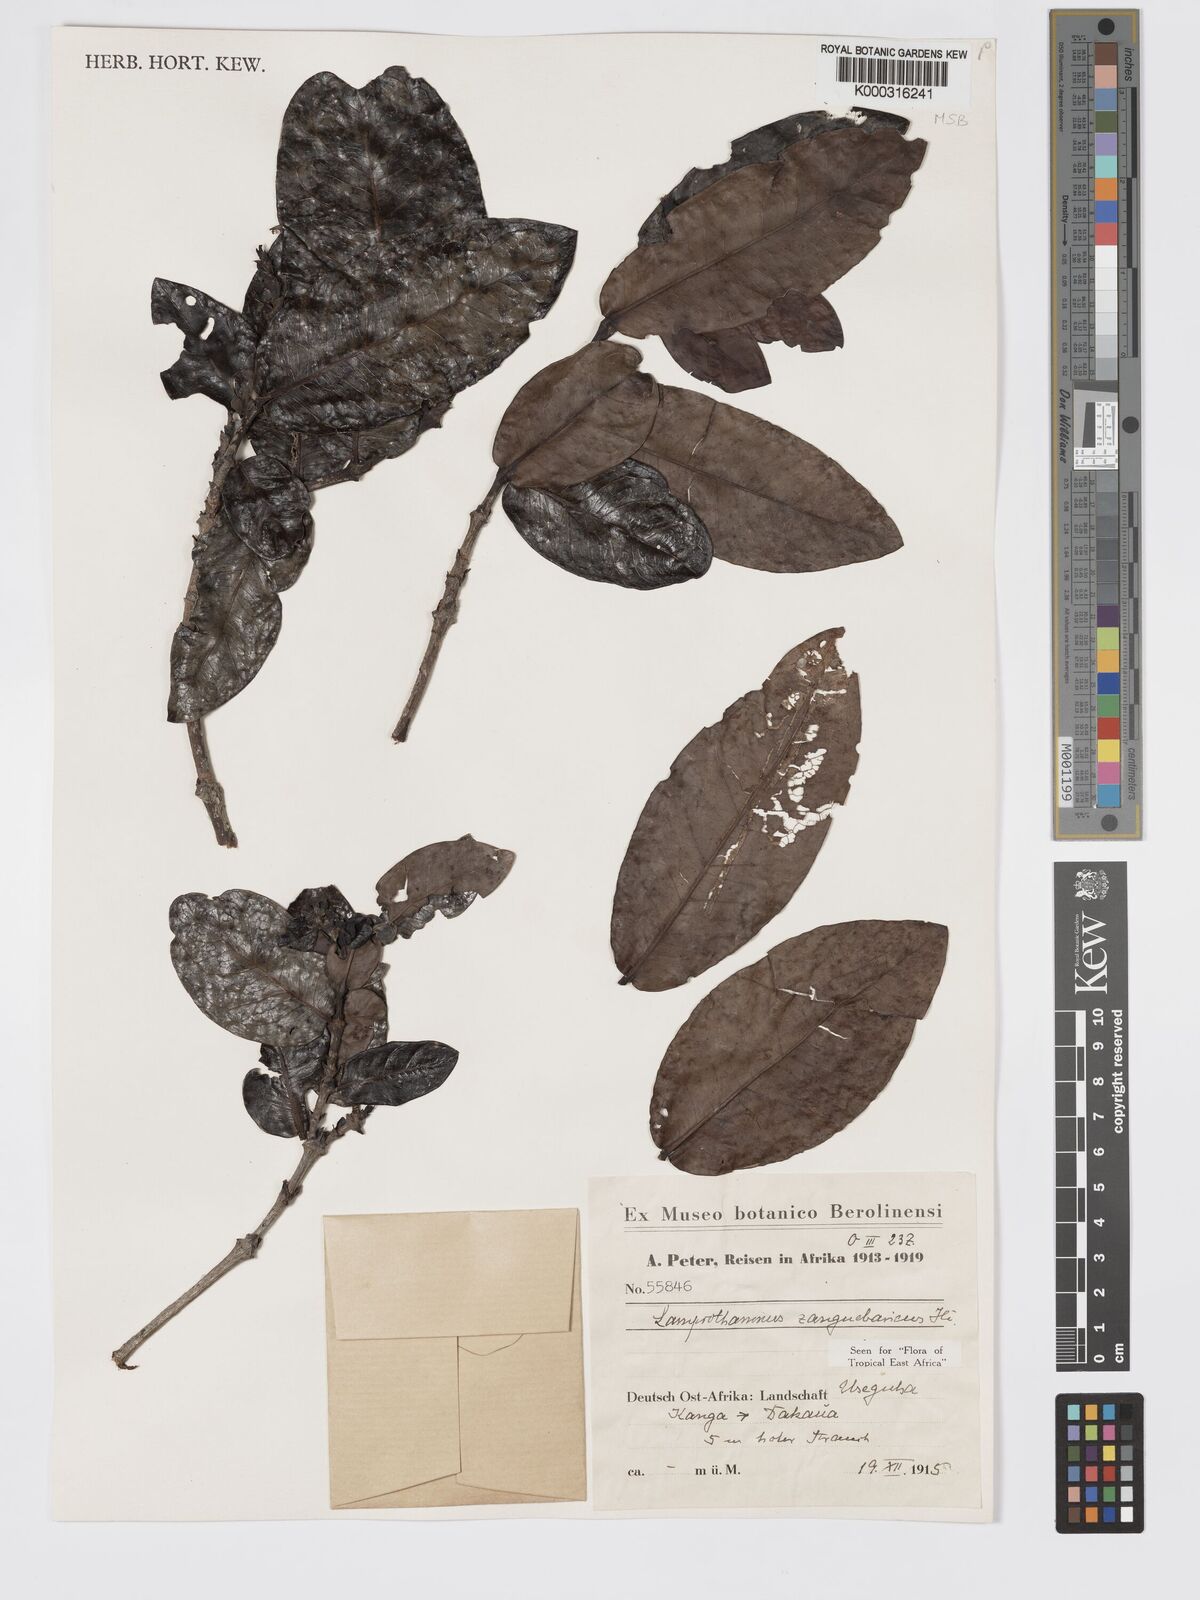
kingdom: Plantae
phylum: Tracheophyta
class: Magnoliopsida
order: Gentianales
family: Rubiaceae
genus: Lamprothamnus
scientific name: Lamprothamnus zanguebaricus
